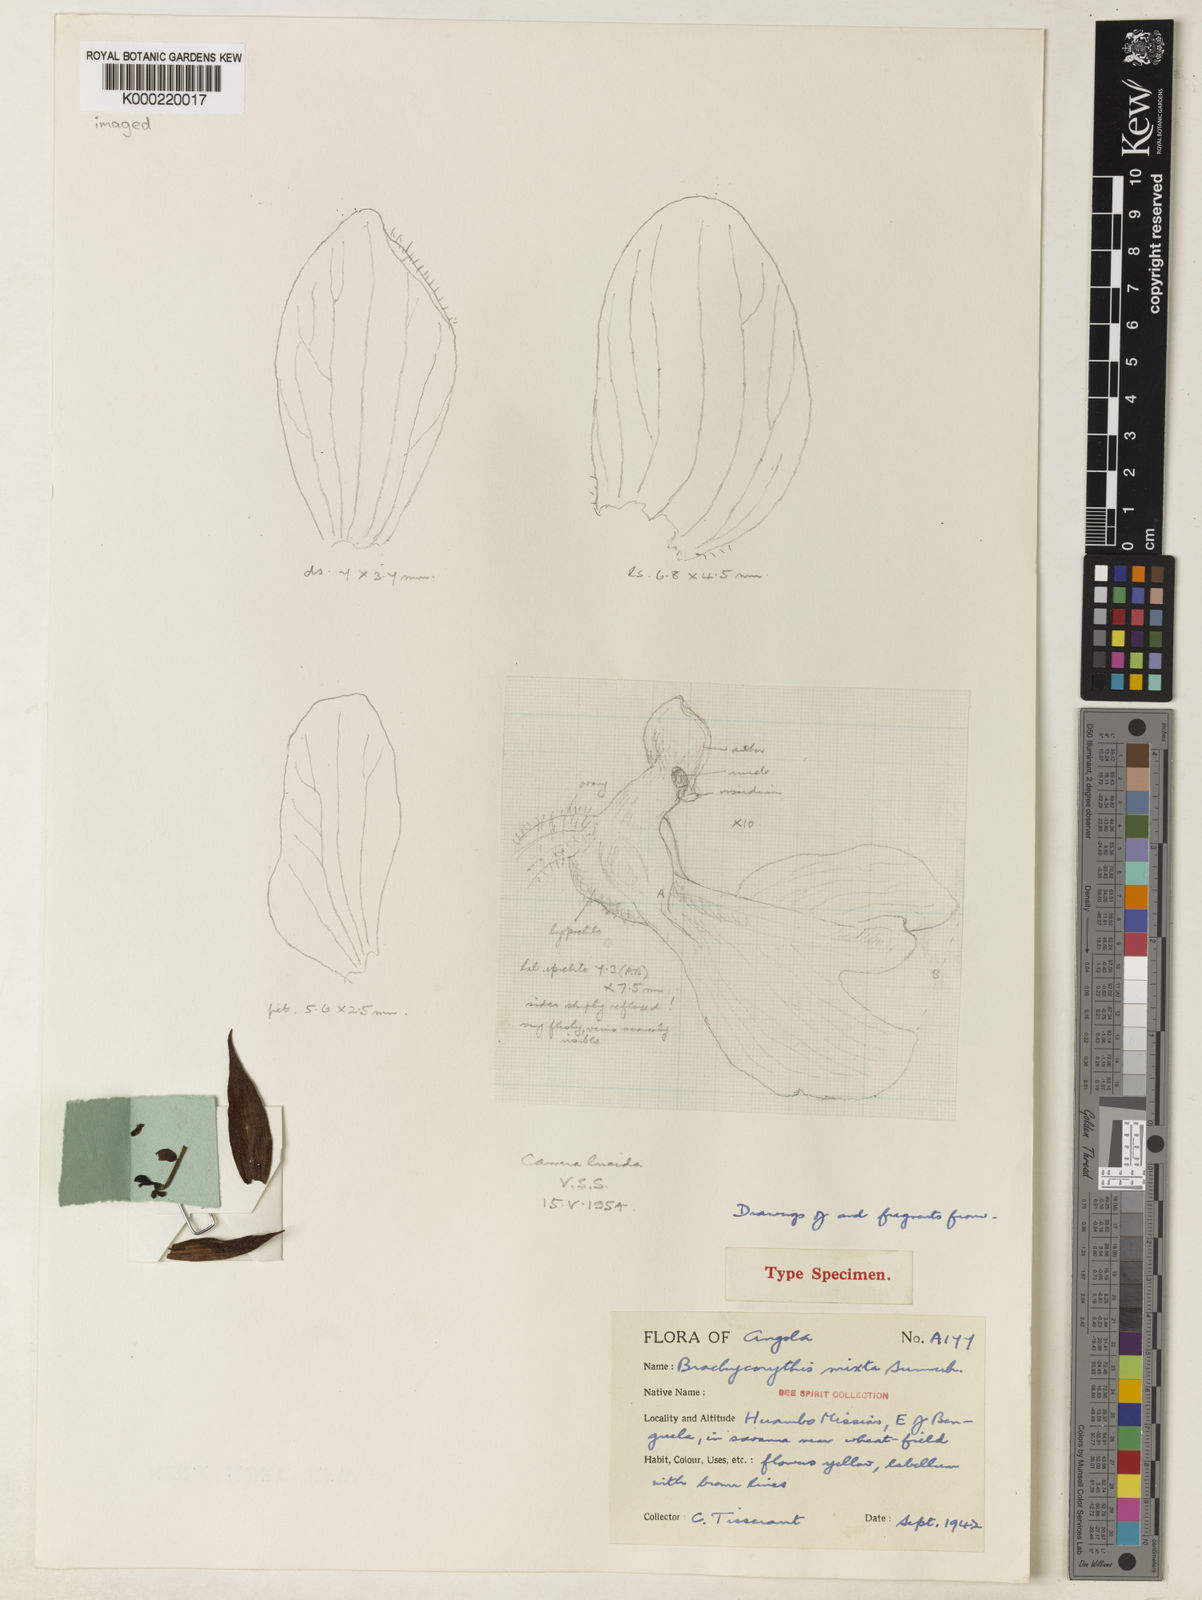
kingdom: Plantae
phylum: Tracheophyta
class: Liliopsida
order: Asparagales
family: Orchidaceae
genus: Brachycorythis
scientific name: Brachycorythis mixta
